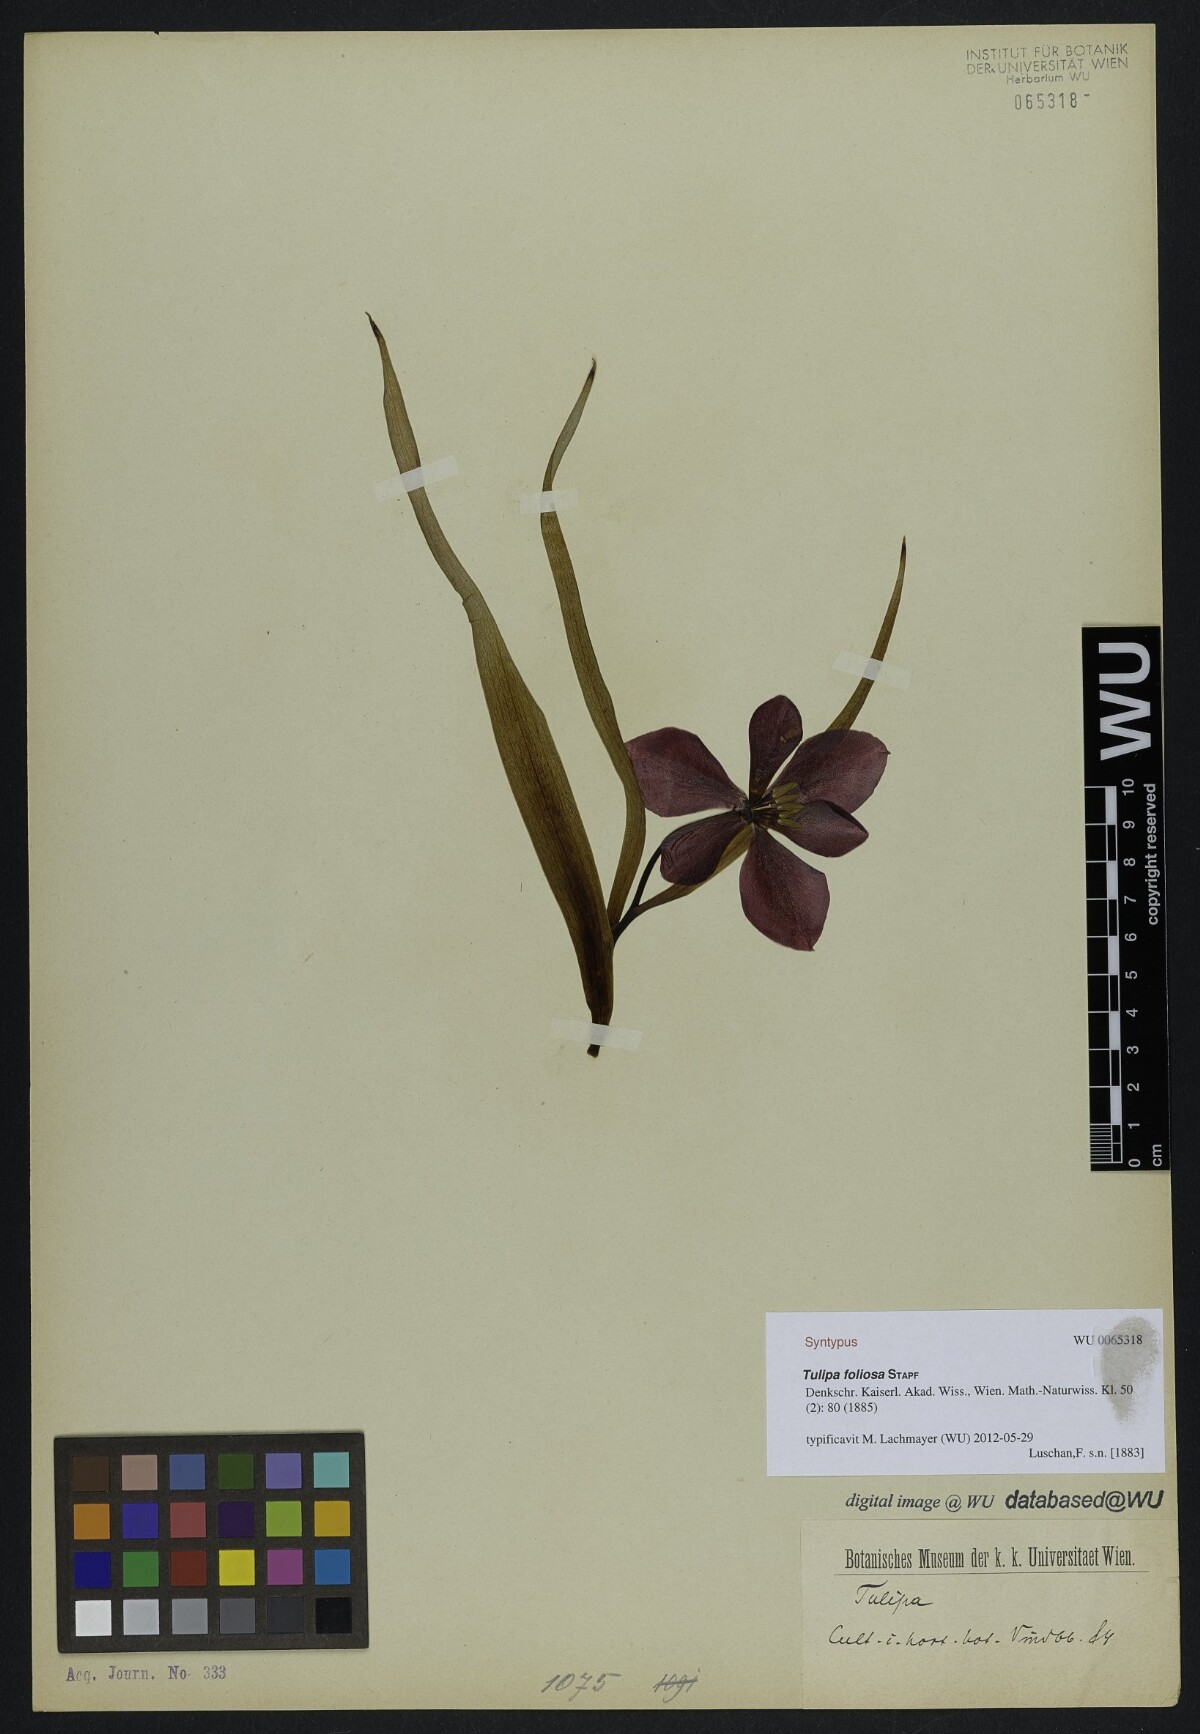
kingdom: Plantae
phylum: Tracheophyta
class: Liliopsida
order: Liliales
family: Liliaceae
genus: Tulipa
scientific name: Tulipa foliosa
